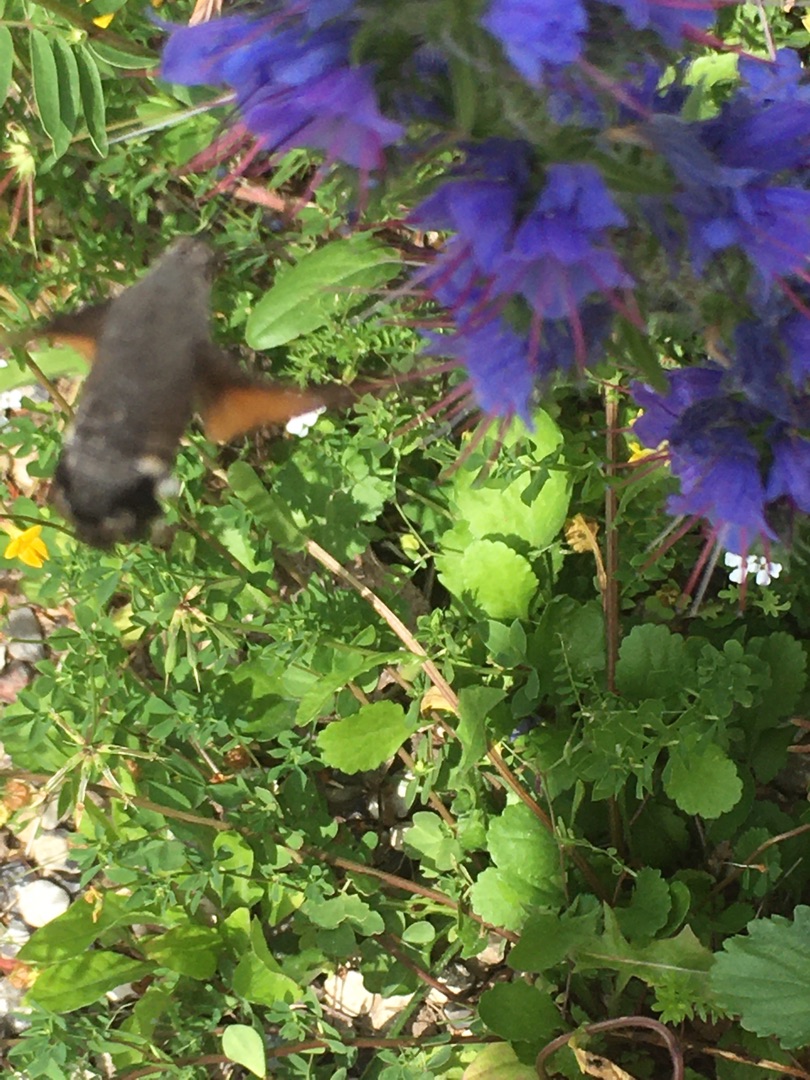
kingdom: Animalia
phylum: Arthropoda
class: Insecta
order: Lepidoptera
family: Sphingidae
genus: Macroglossum
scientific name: Macroglossum stellatarum
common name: Duehale
